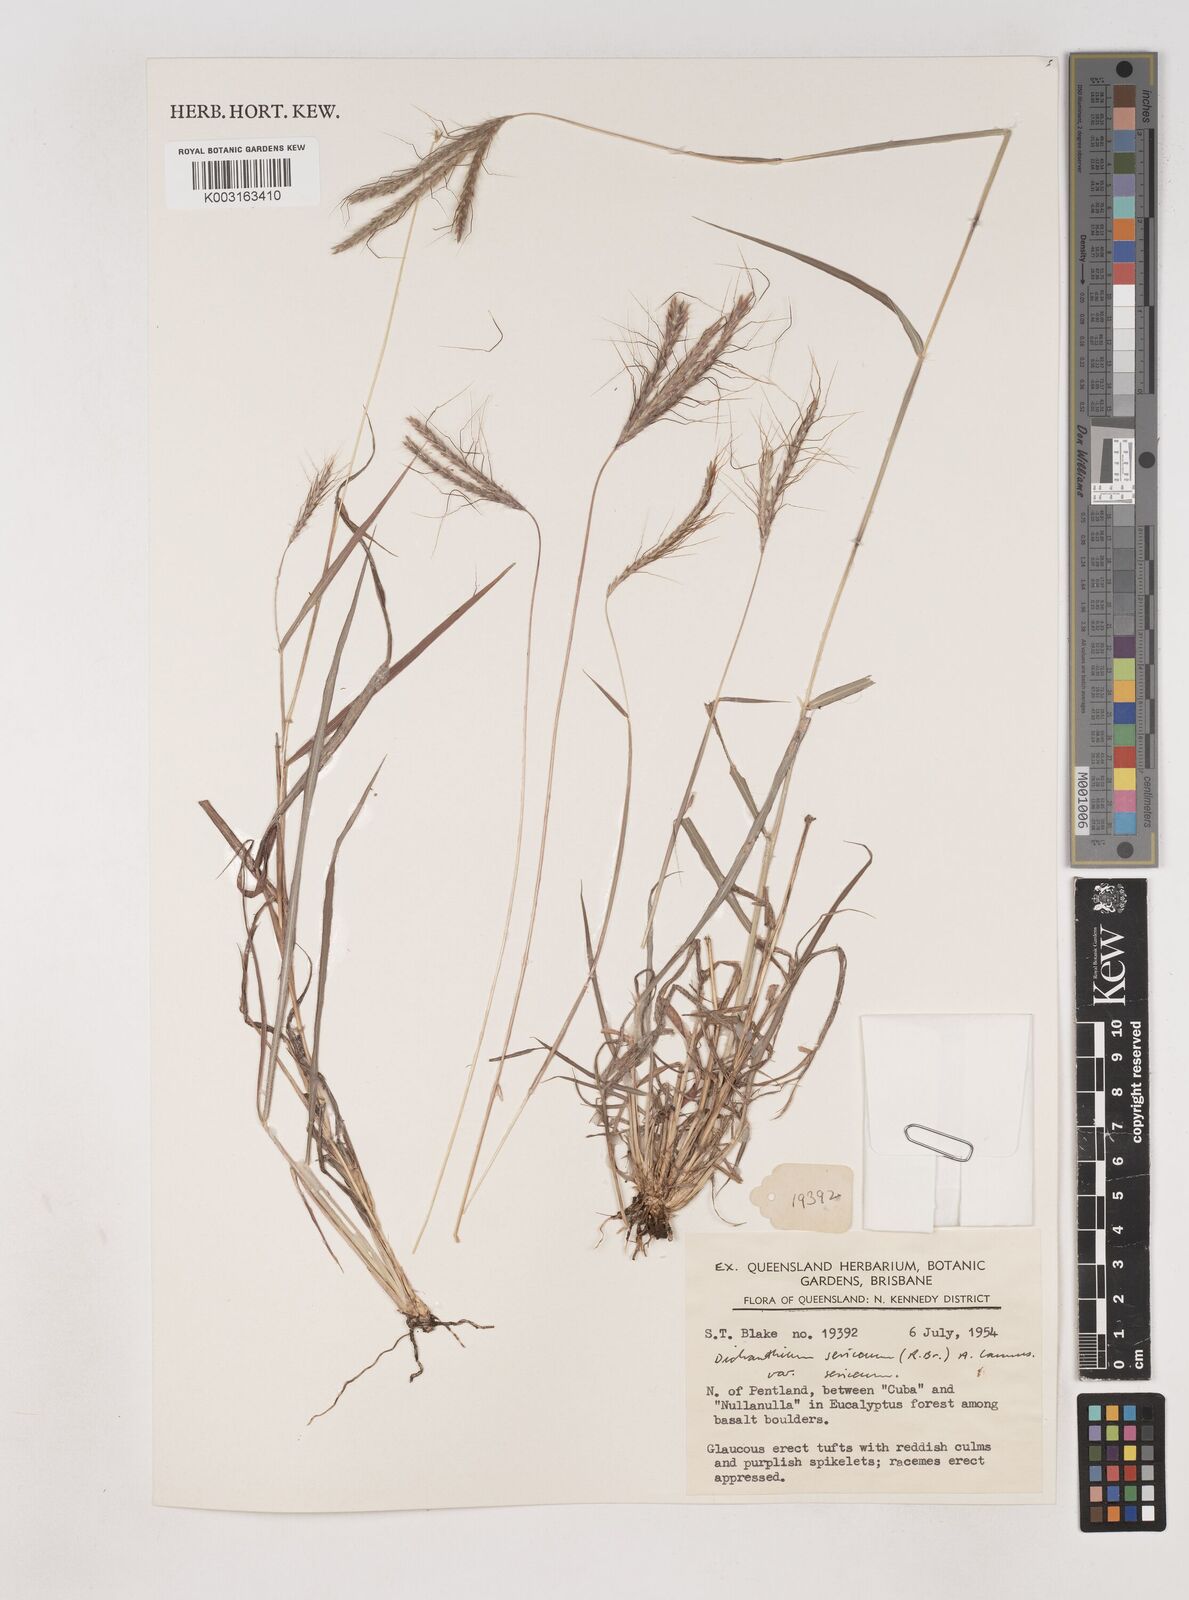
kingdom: Plantae
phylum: Tracheophyta
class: Liliopsida
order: Poales
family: Poaceae
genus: Dichanthium
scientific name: Dichanthium sericeum
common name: Silky bluestem
